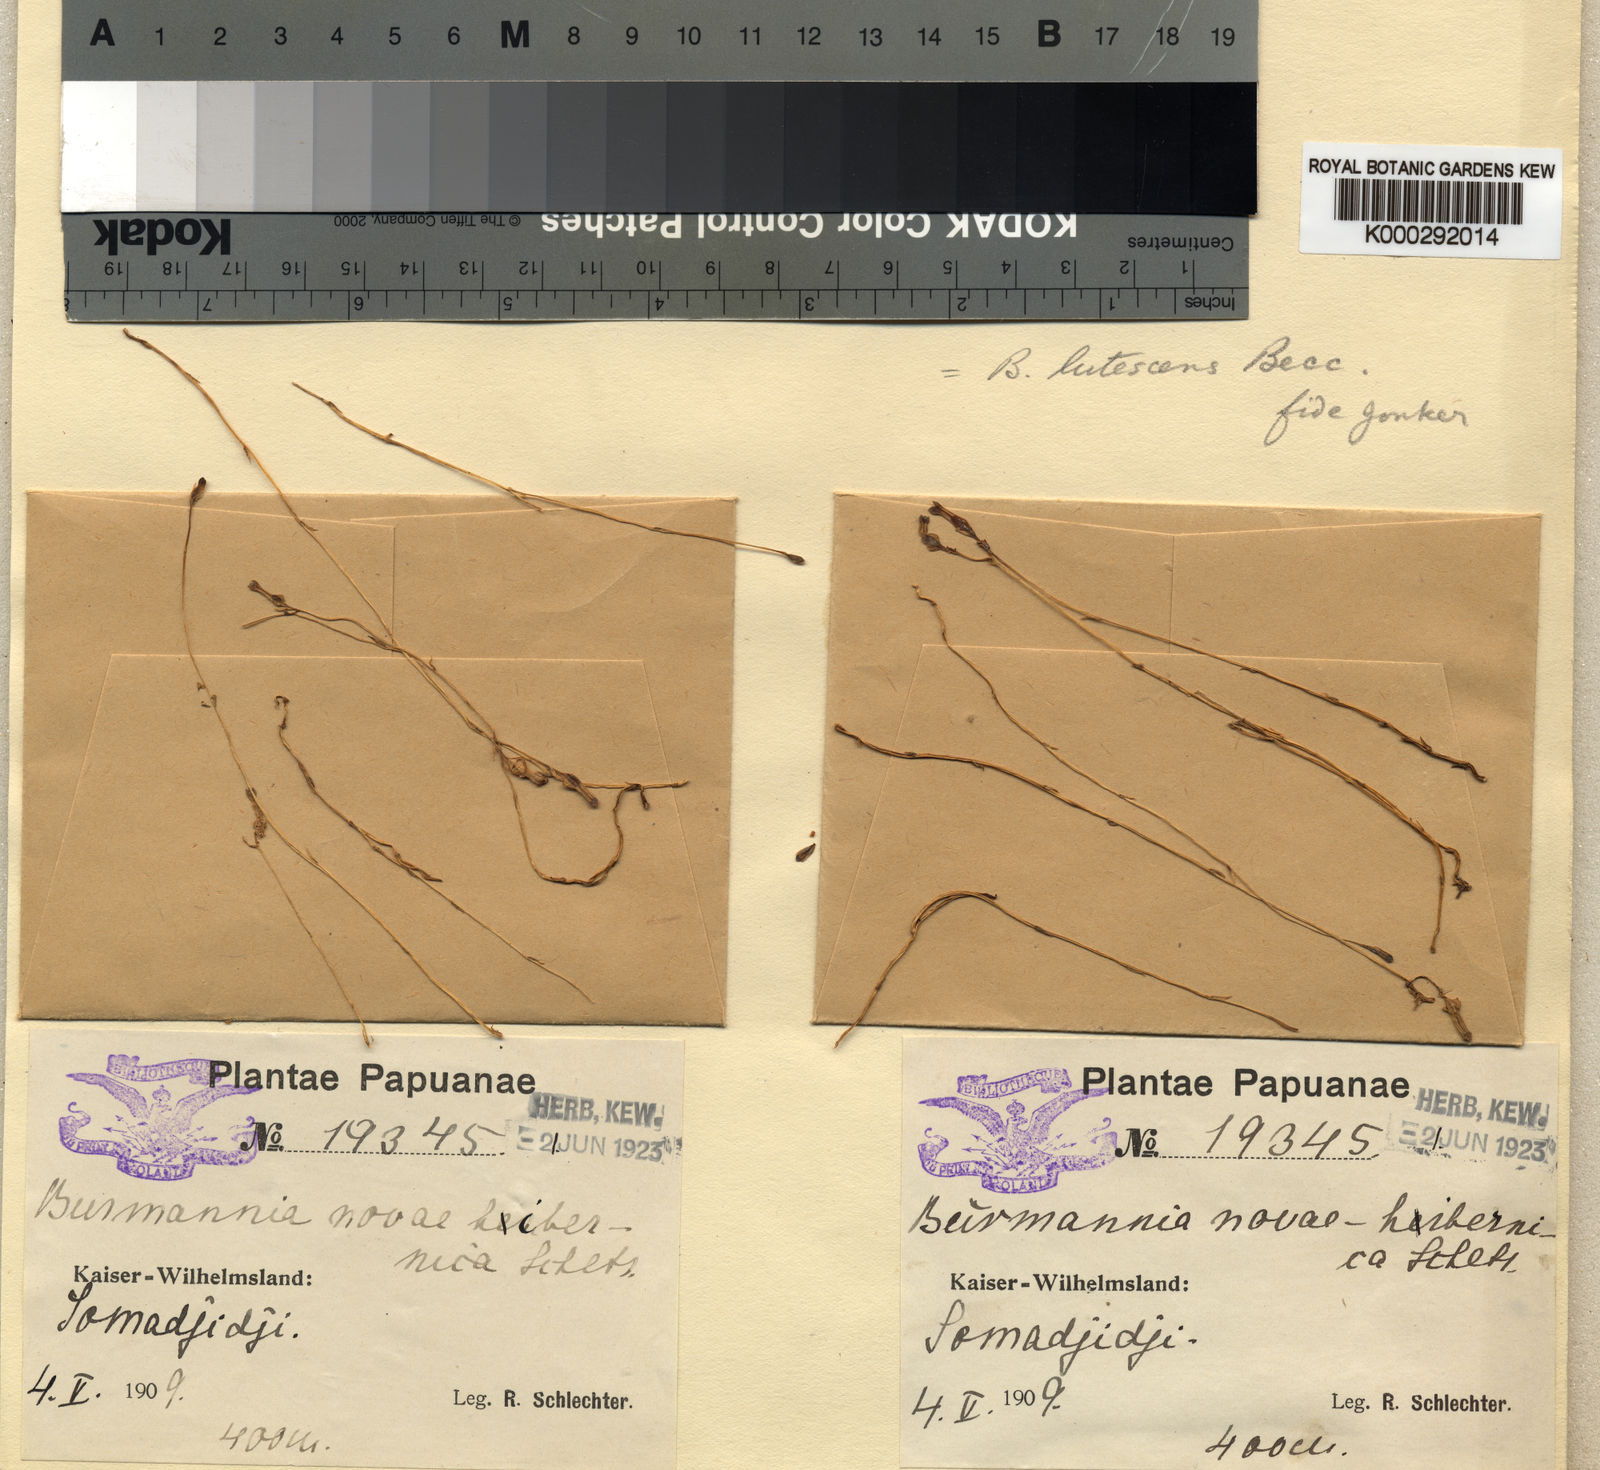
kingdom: Plantae
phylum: Tracheophyta
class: Liliopsida
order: Dioscoreales
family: Burmanniaceae
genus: Burmannia
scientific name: Burmannia lutescens
